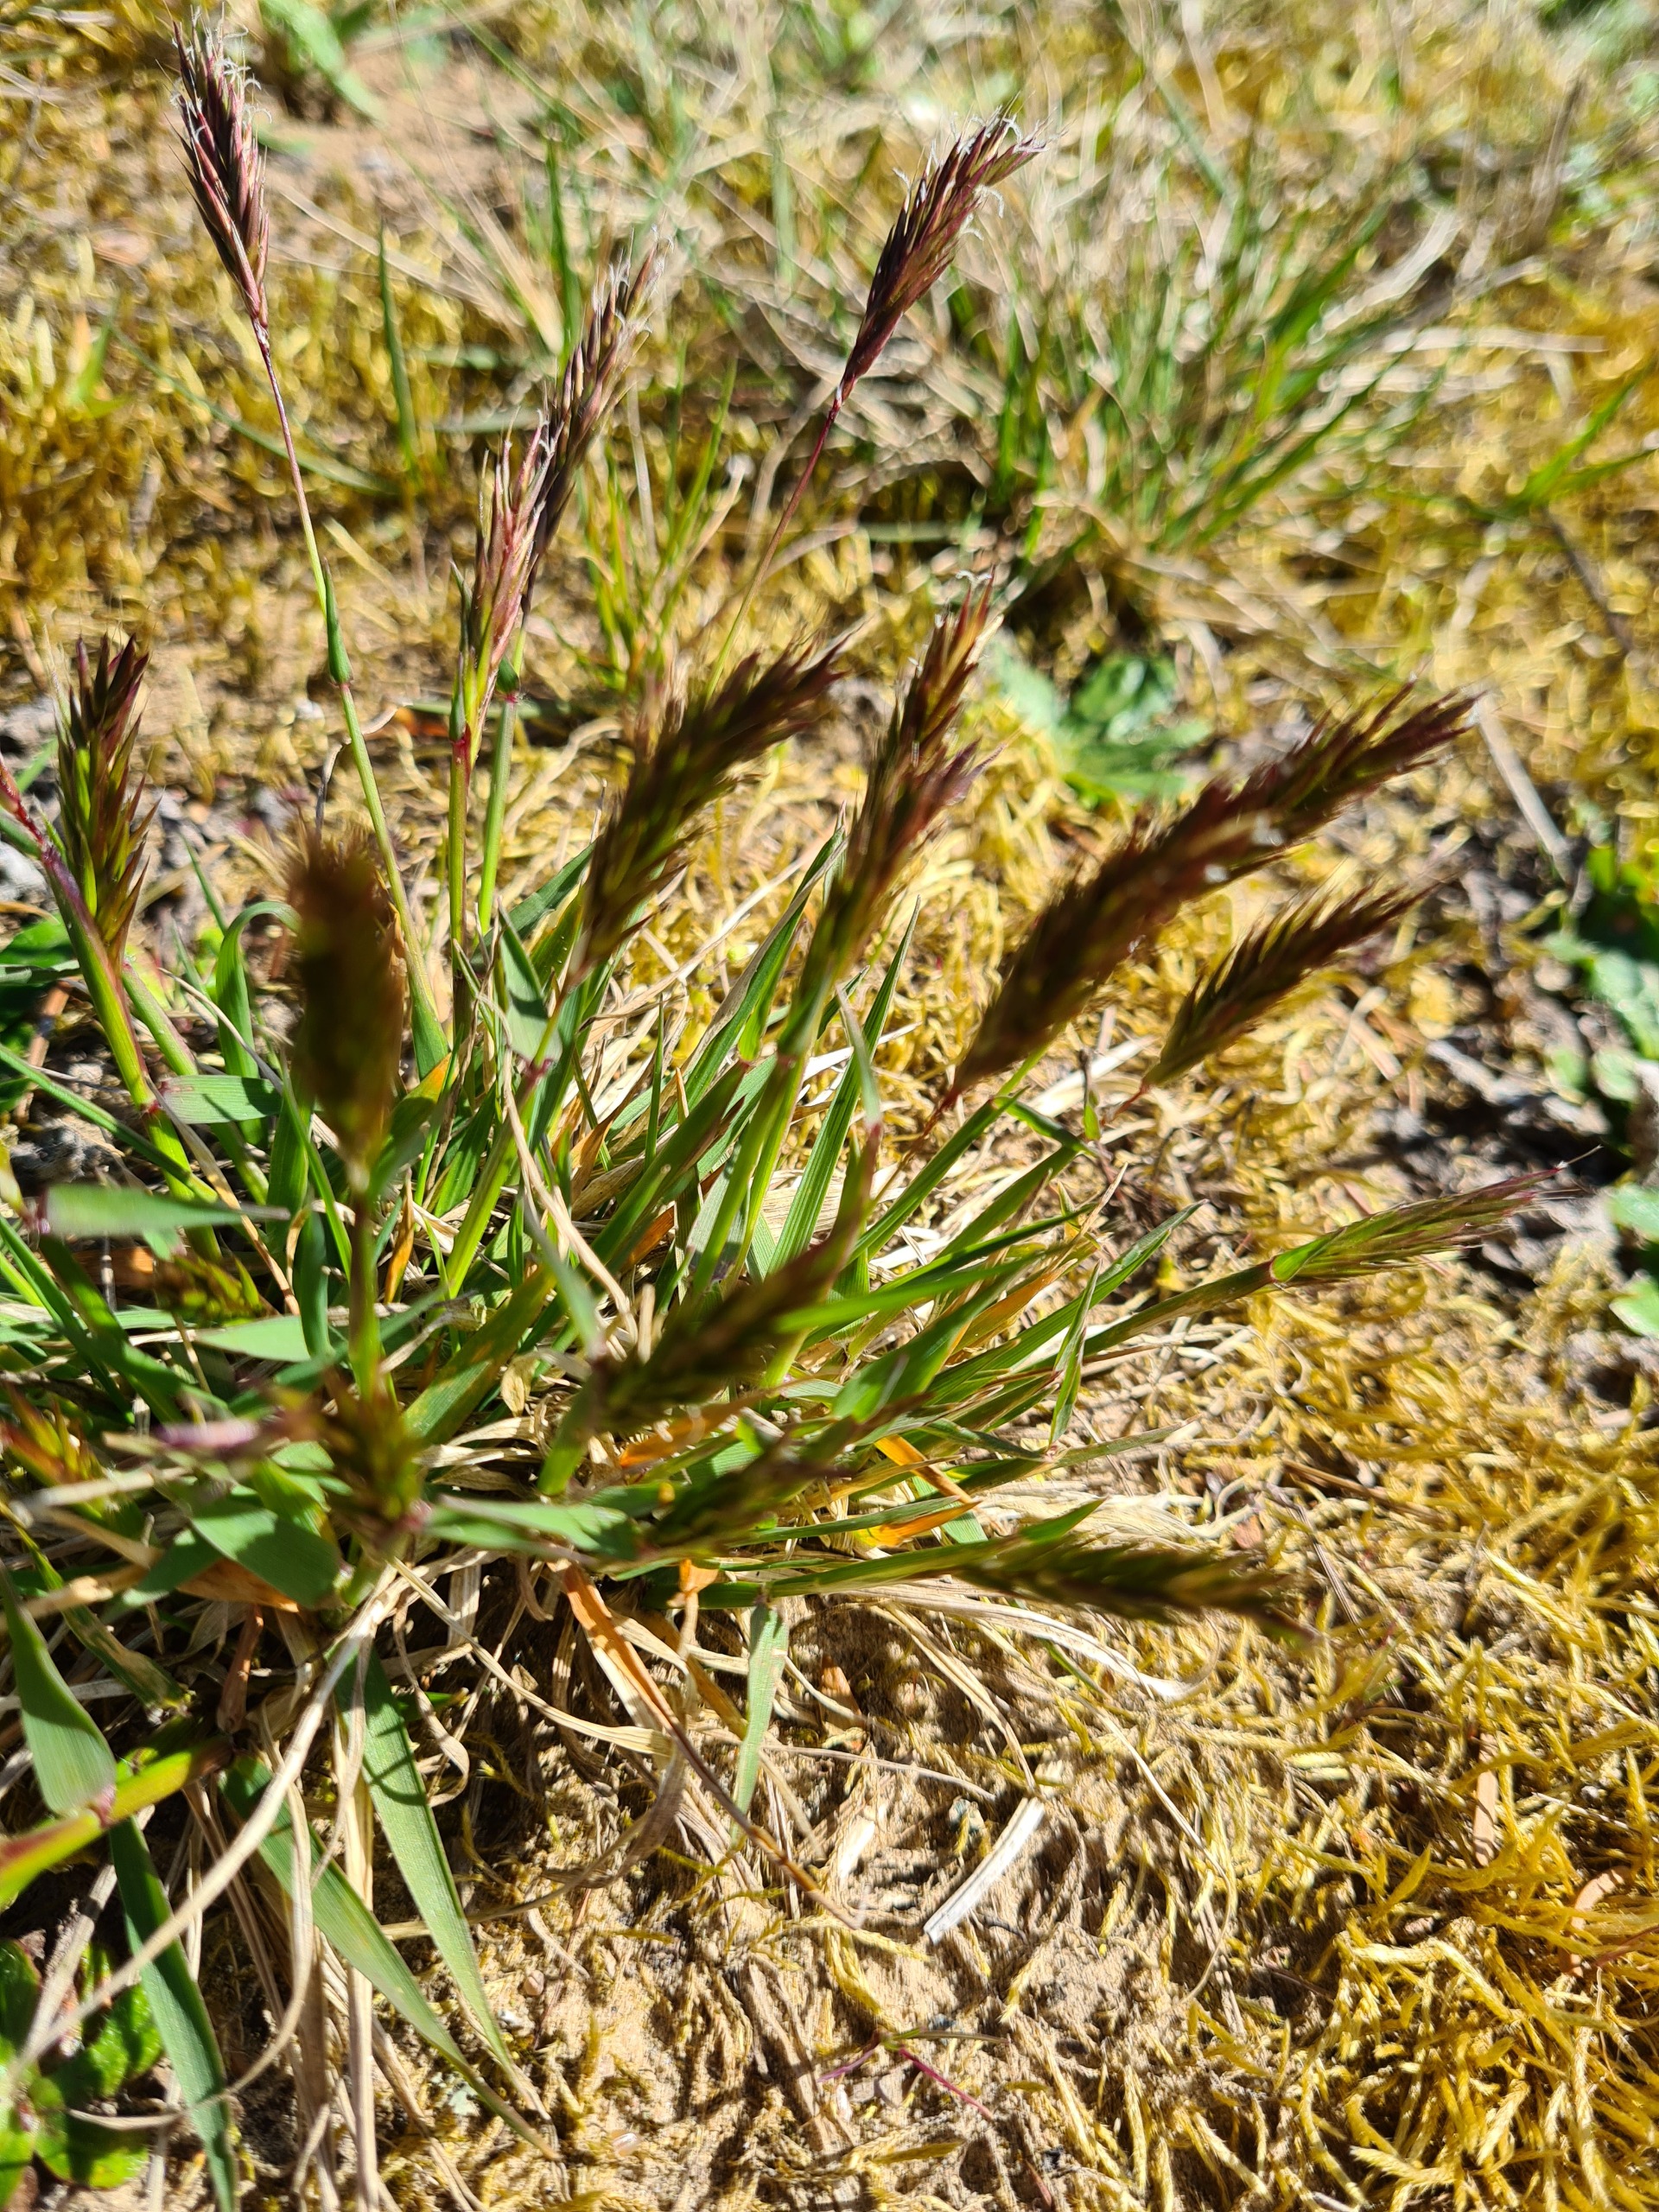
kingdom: Plantae
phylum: Tracheophyta
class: Liliopsida
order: Poales
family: Poaceae
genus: Anthoxanthum
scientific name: Anthoxanthum odoratum
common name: Vellugtende gulaks
